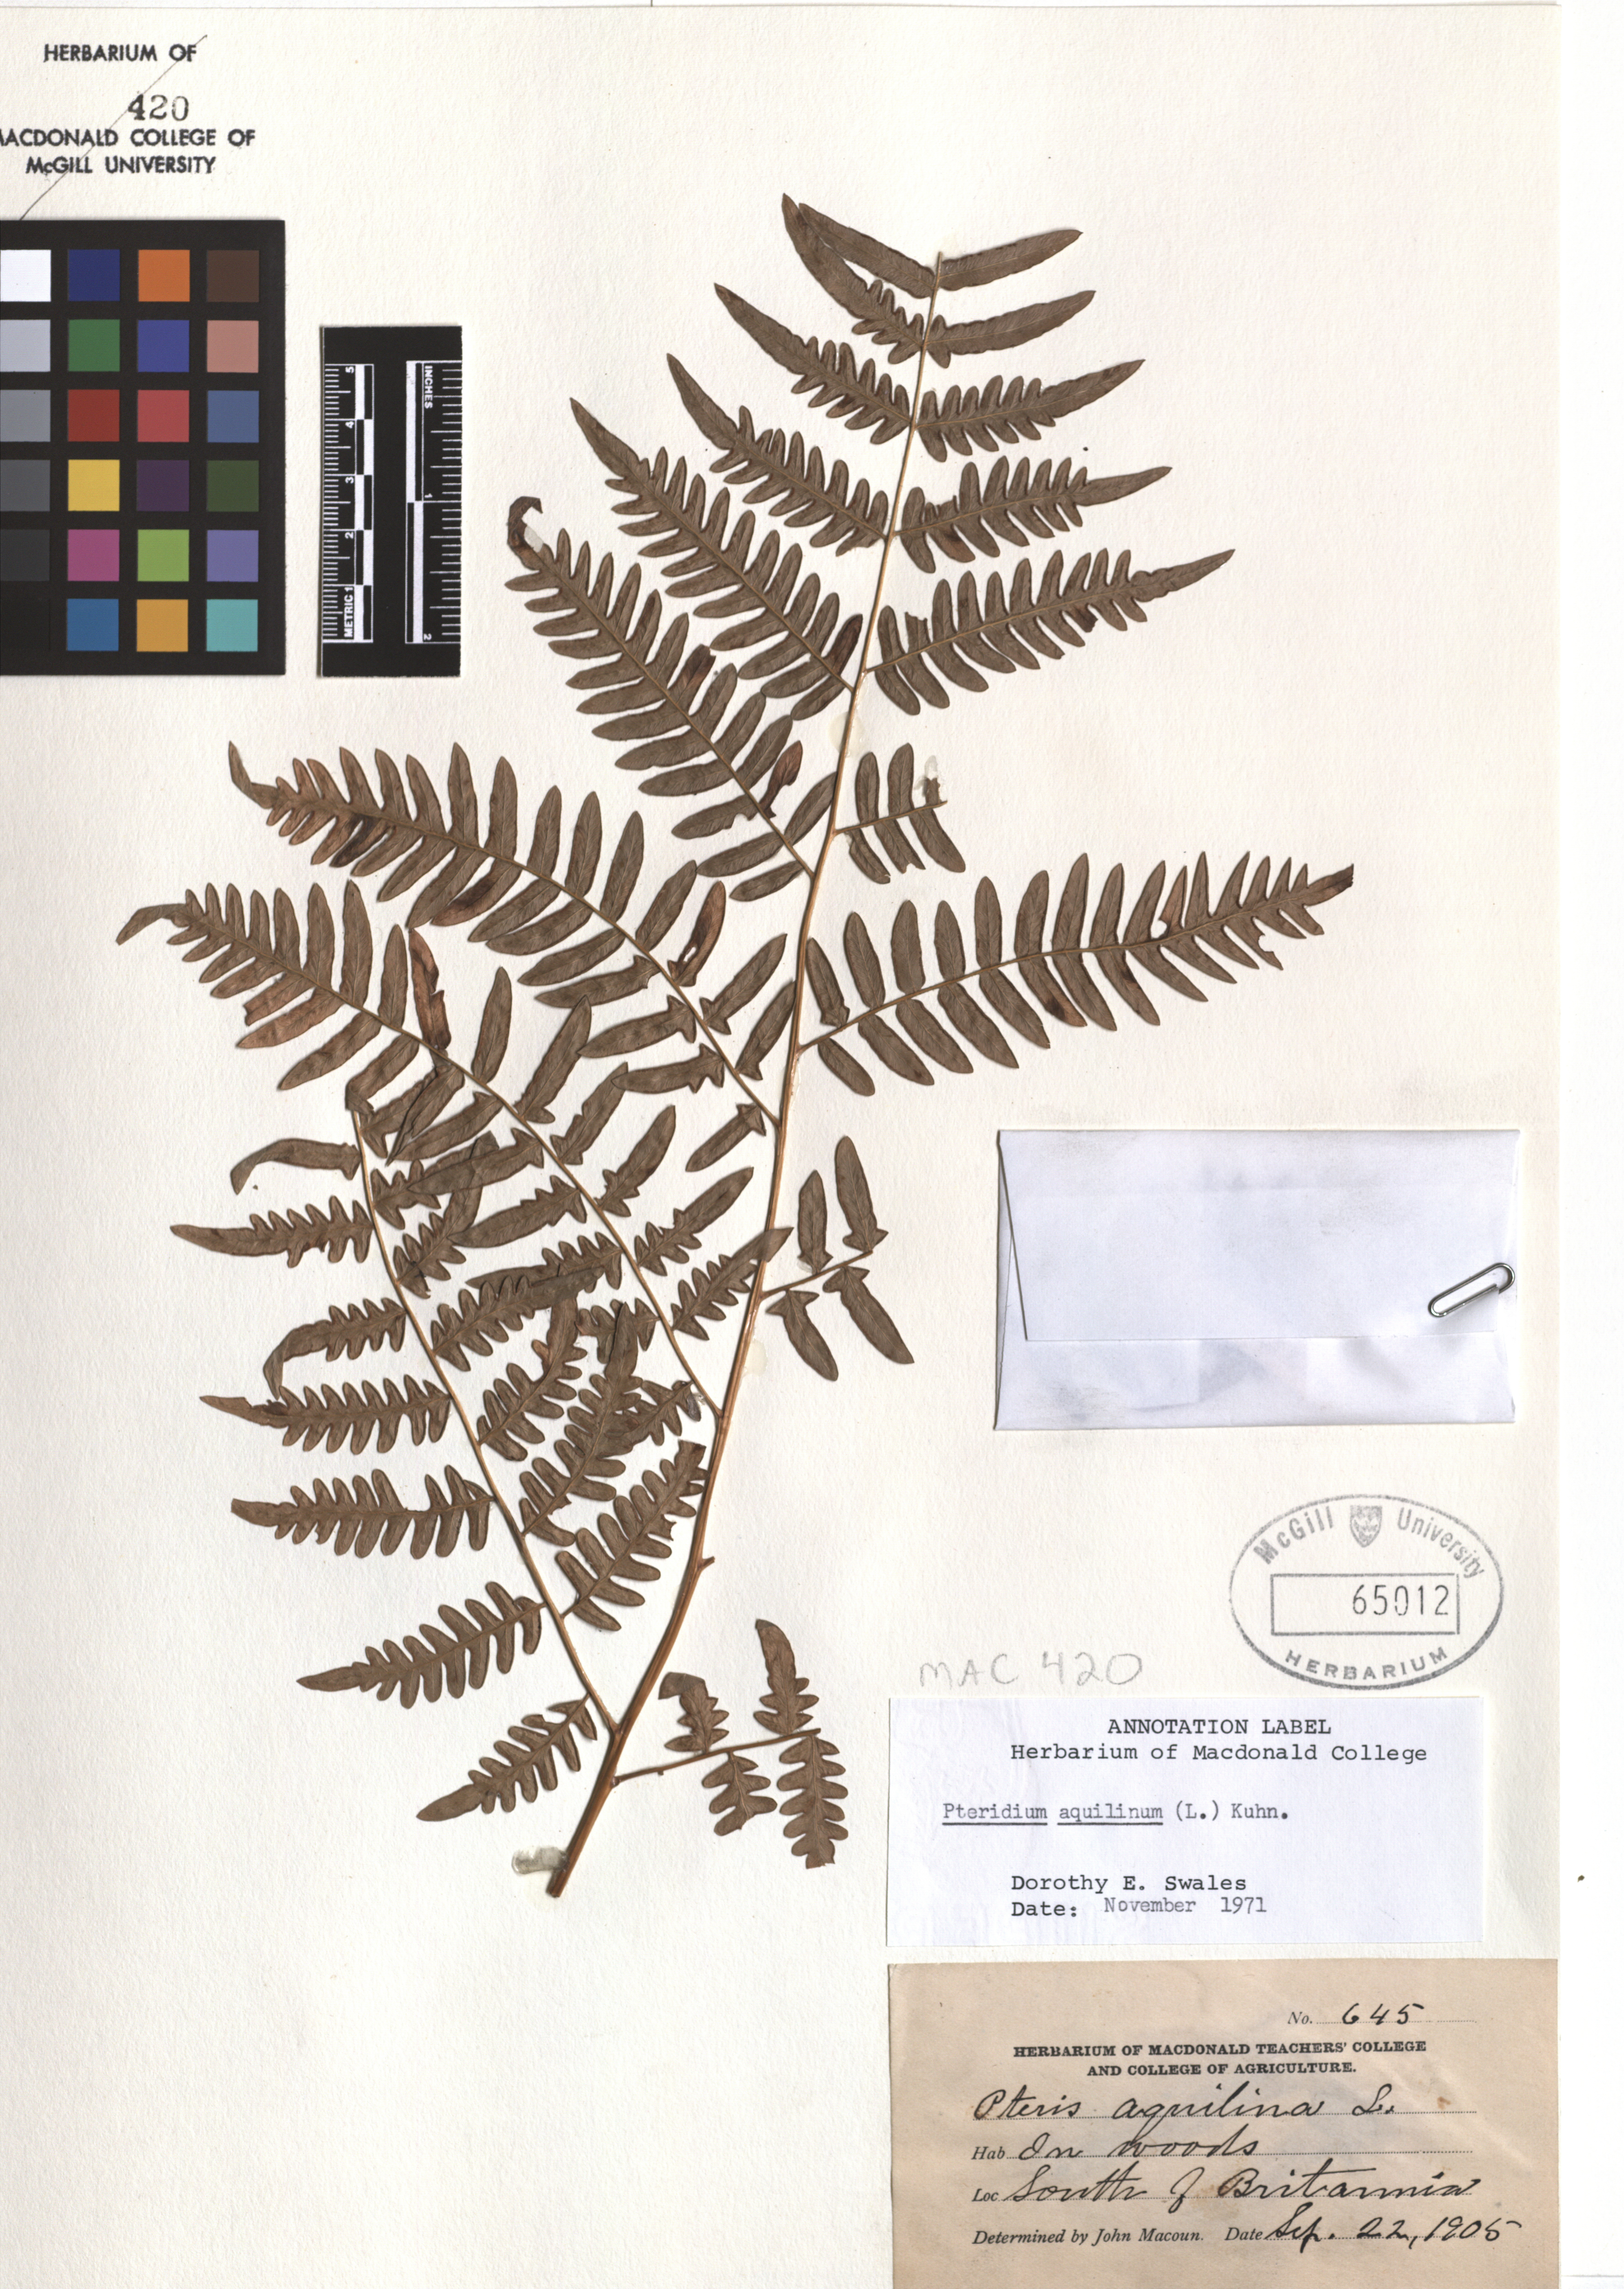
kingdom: Plantae
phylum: Tracheophyta
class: Polypodiopsida
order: Polypodiales
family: Dennstaedtiaceae
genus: Pteridium
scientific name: Pteridium aquilinum
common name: Bracken
